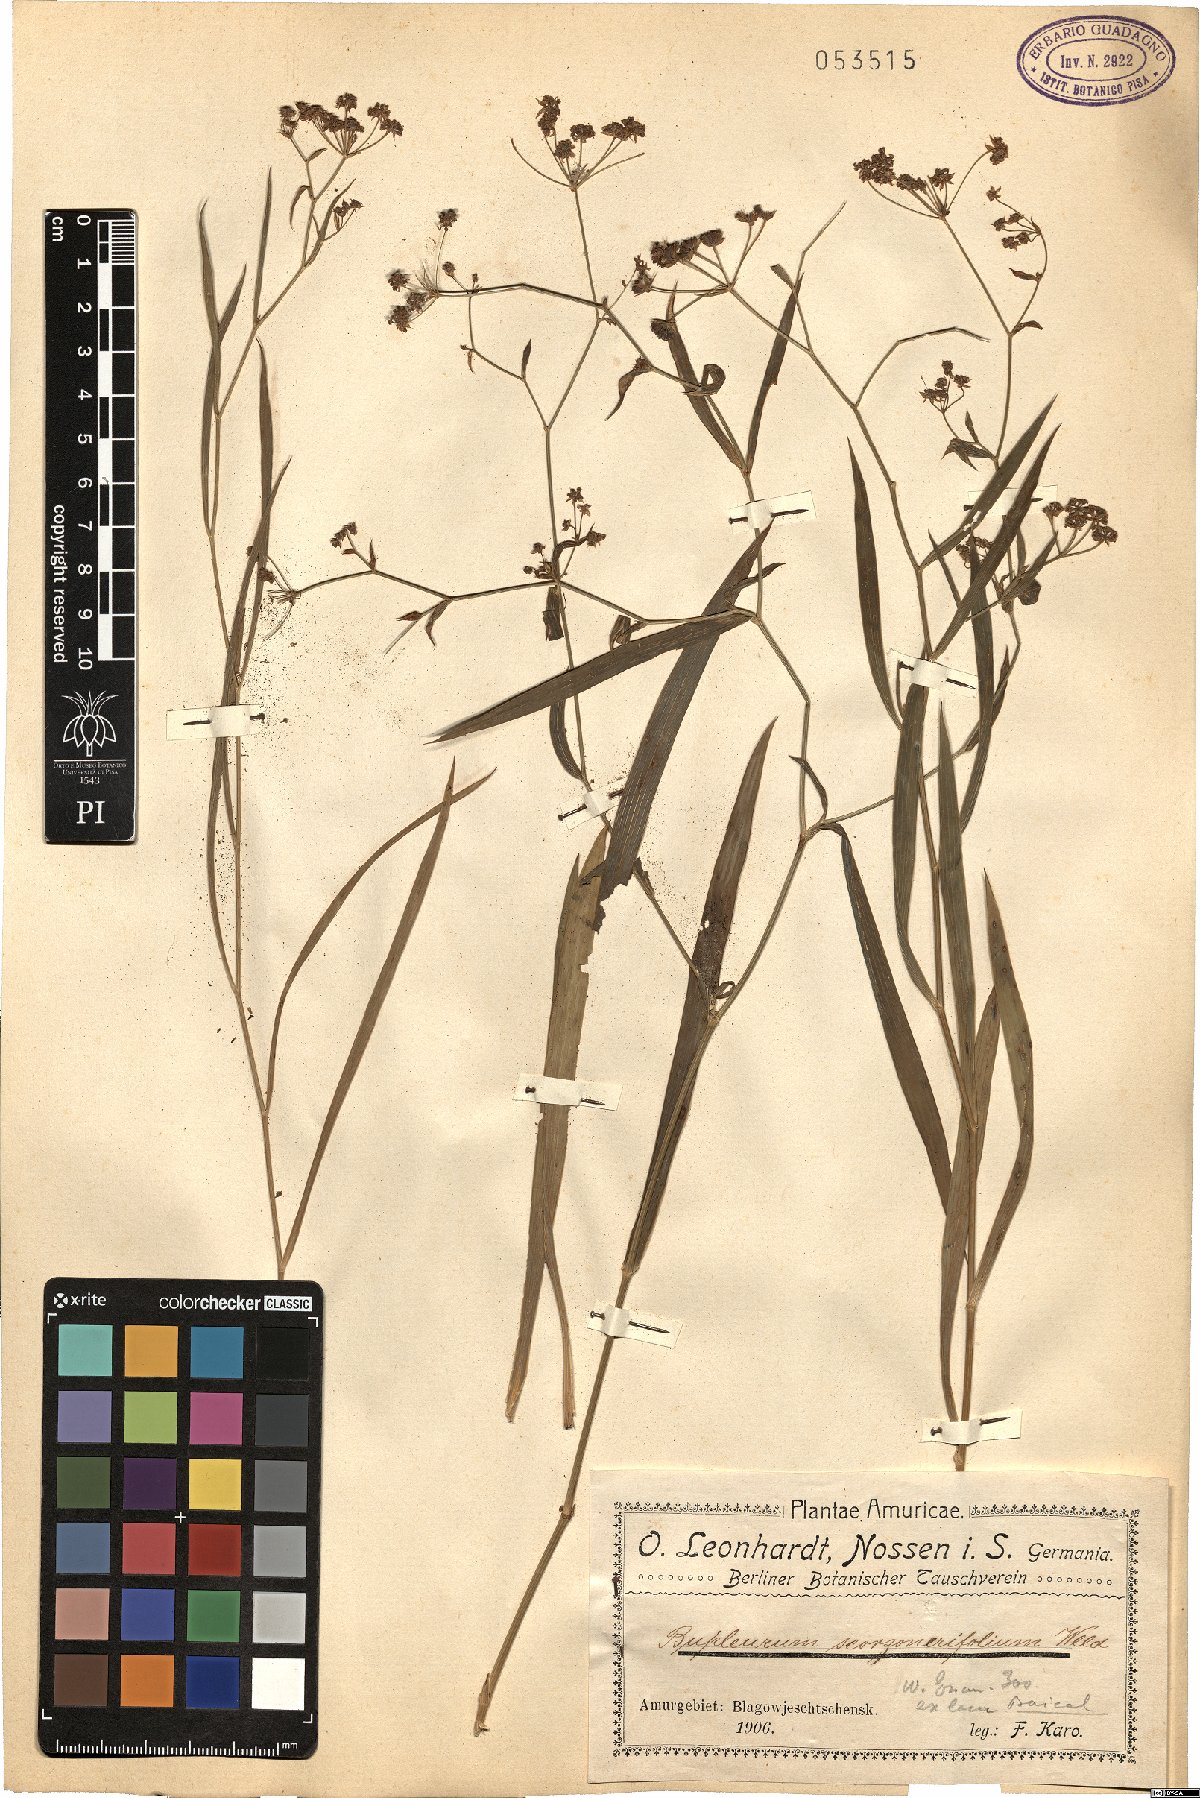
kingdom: Plantae
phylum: Tracheophyta
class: Magnoliopsida
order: Apiales
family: Apiaceae
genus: Bupleurum
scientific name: Bupleurum scorzonerifolium
